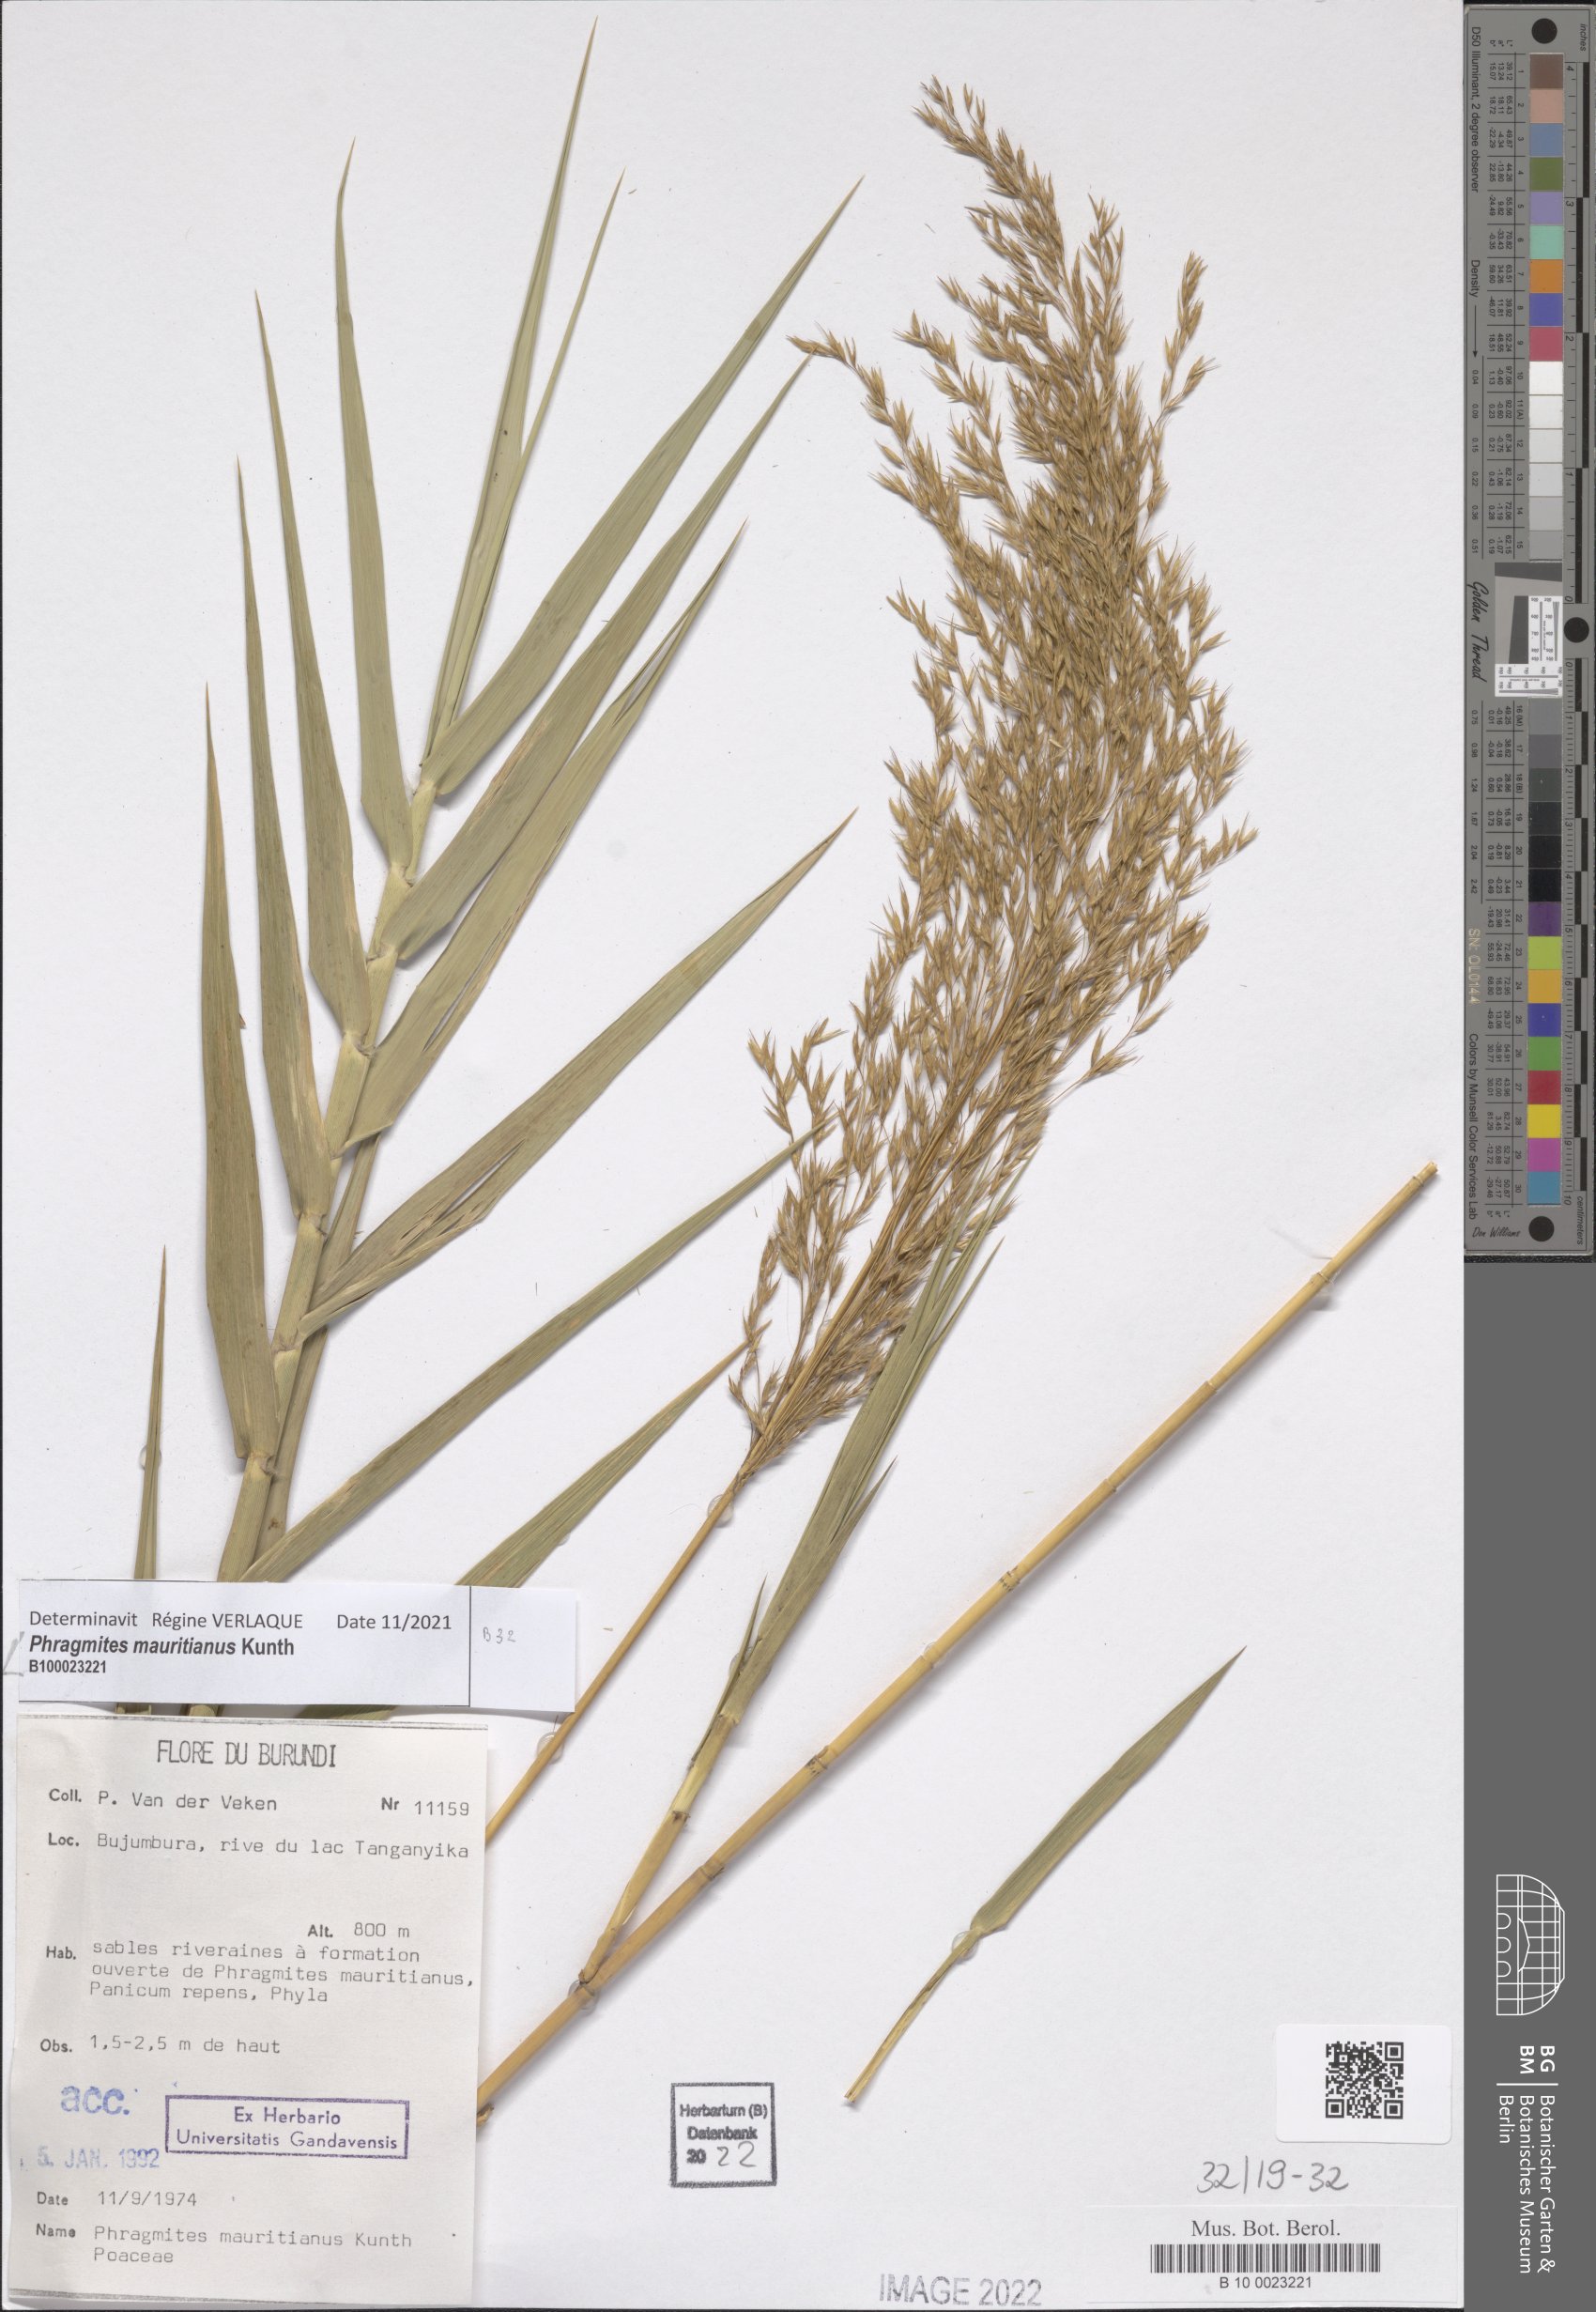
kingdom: Plantae
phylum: Tracheophyta
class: Liliopsida
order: Poales
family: Poaceae
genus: Phragmites
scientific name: Phragmites mauritianus
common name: Reed grass
